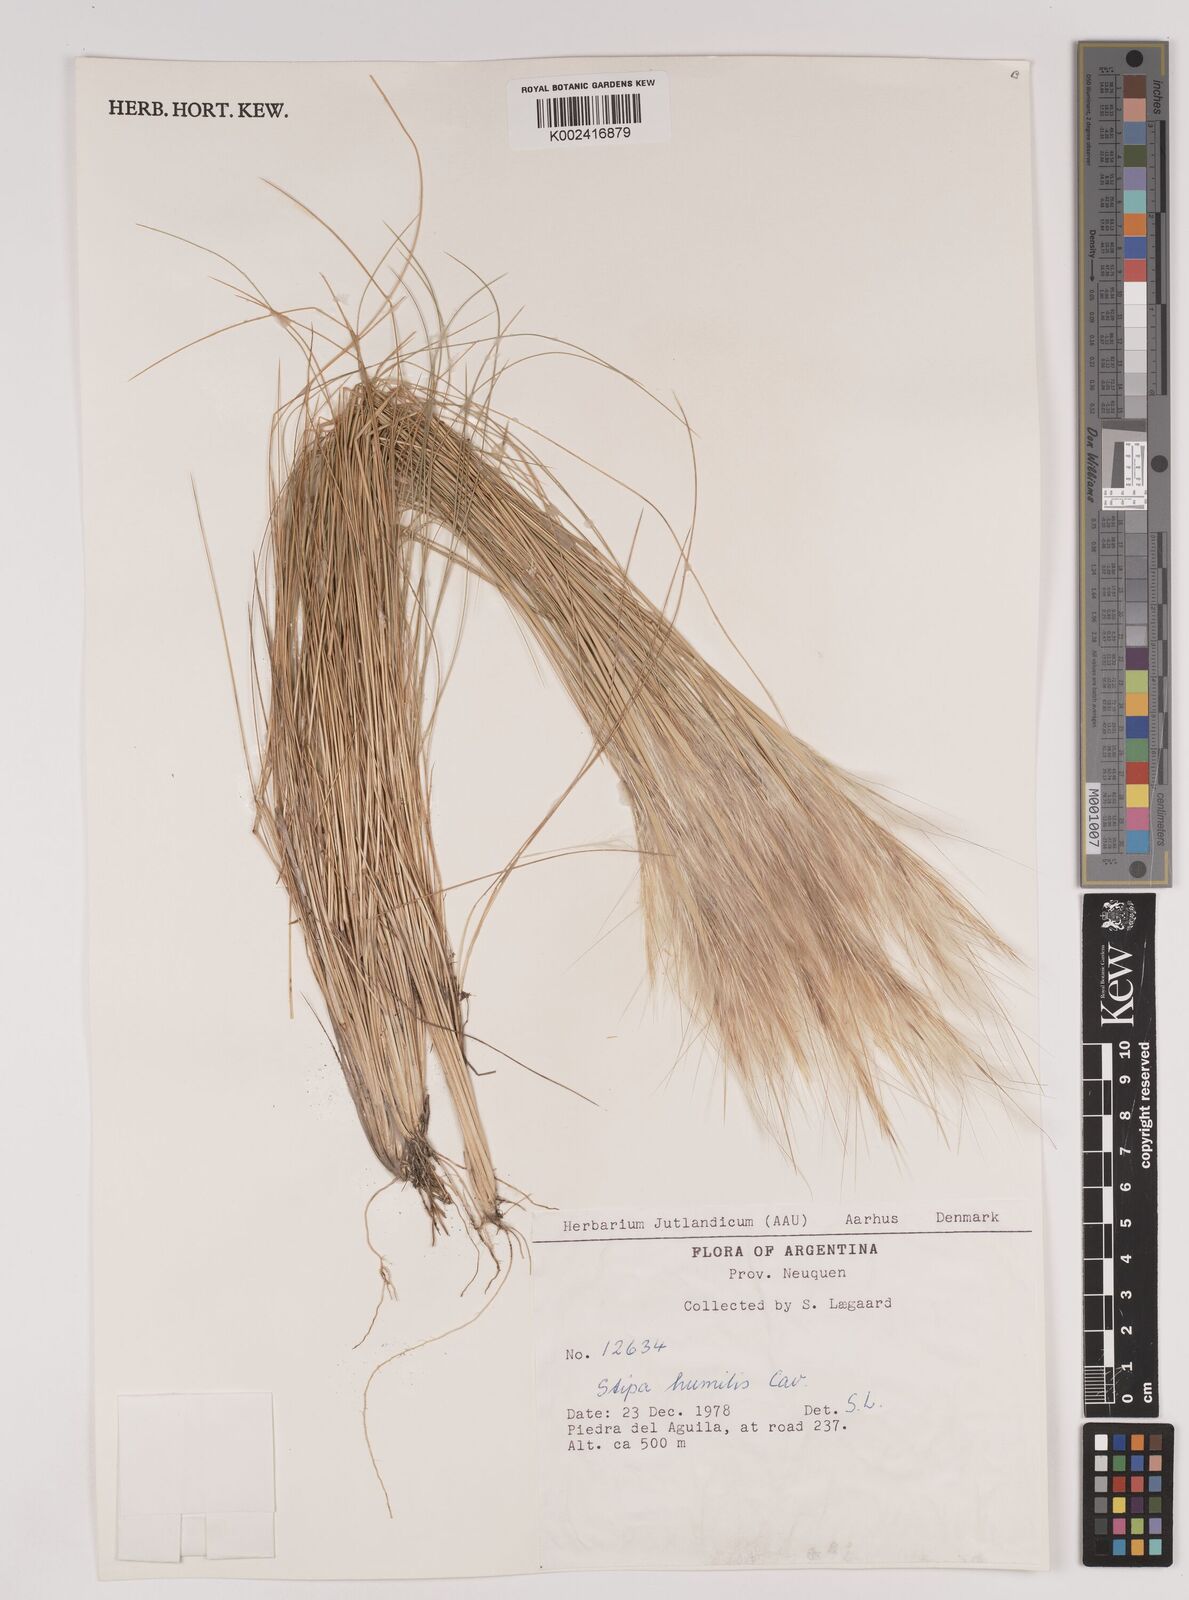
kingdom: Plantae
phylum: Tracheophyta
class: Liliopsida
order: Poales
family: Poaceae
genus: Pappostipa
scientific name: Pappostipa humilis
